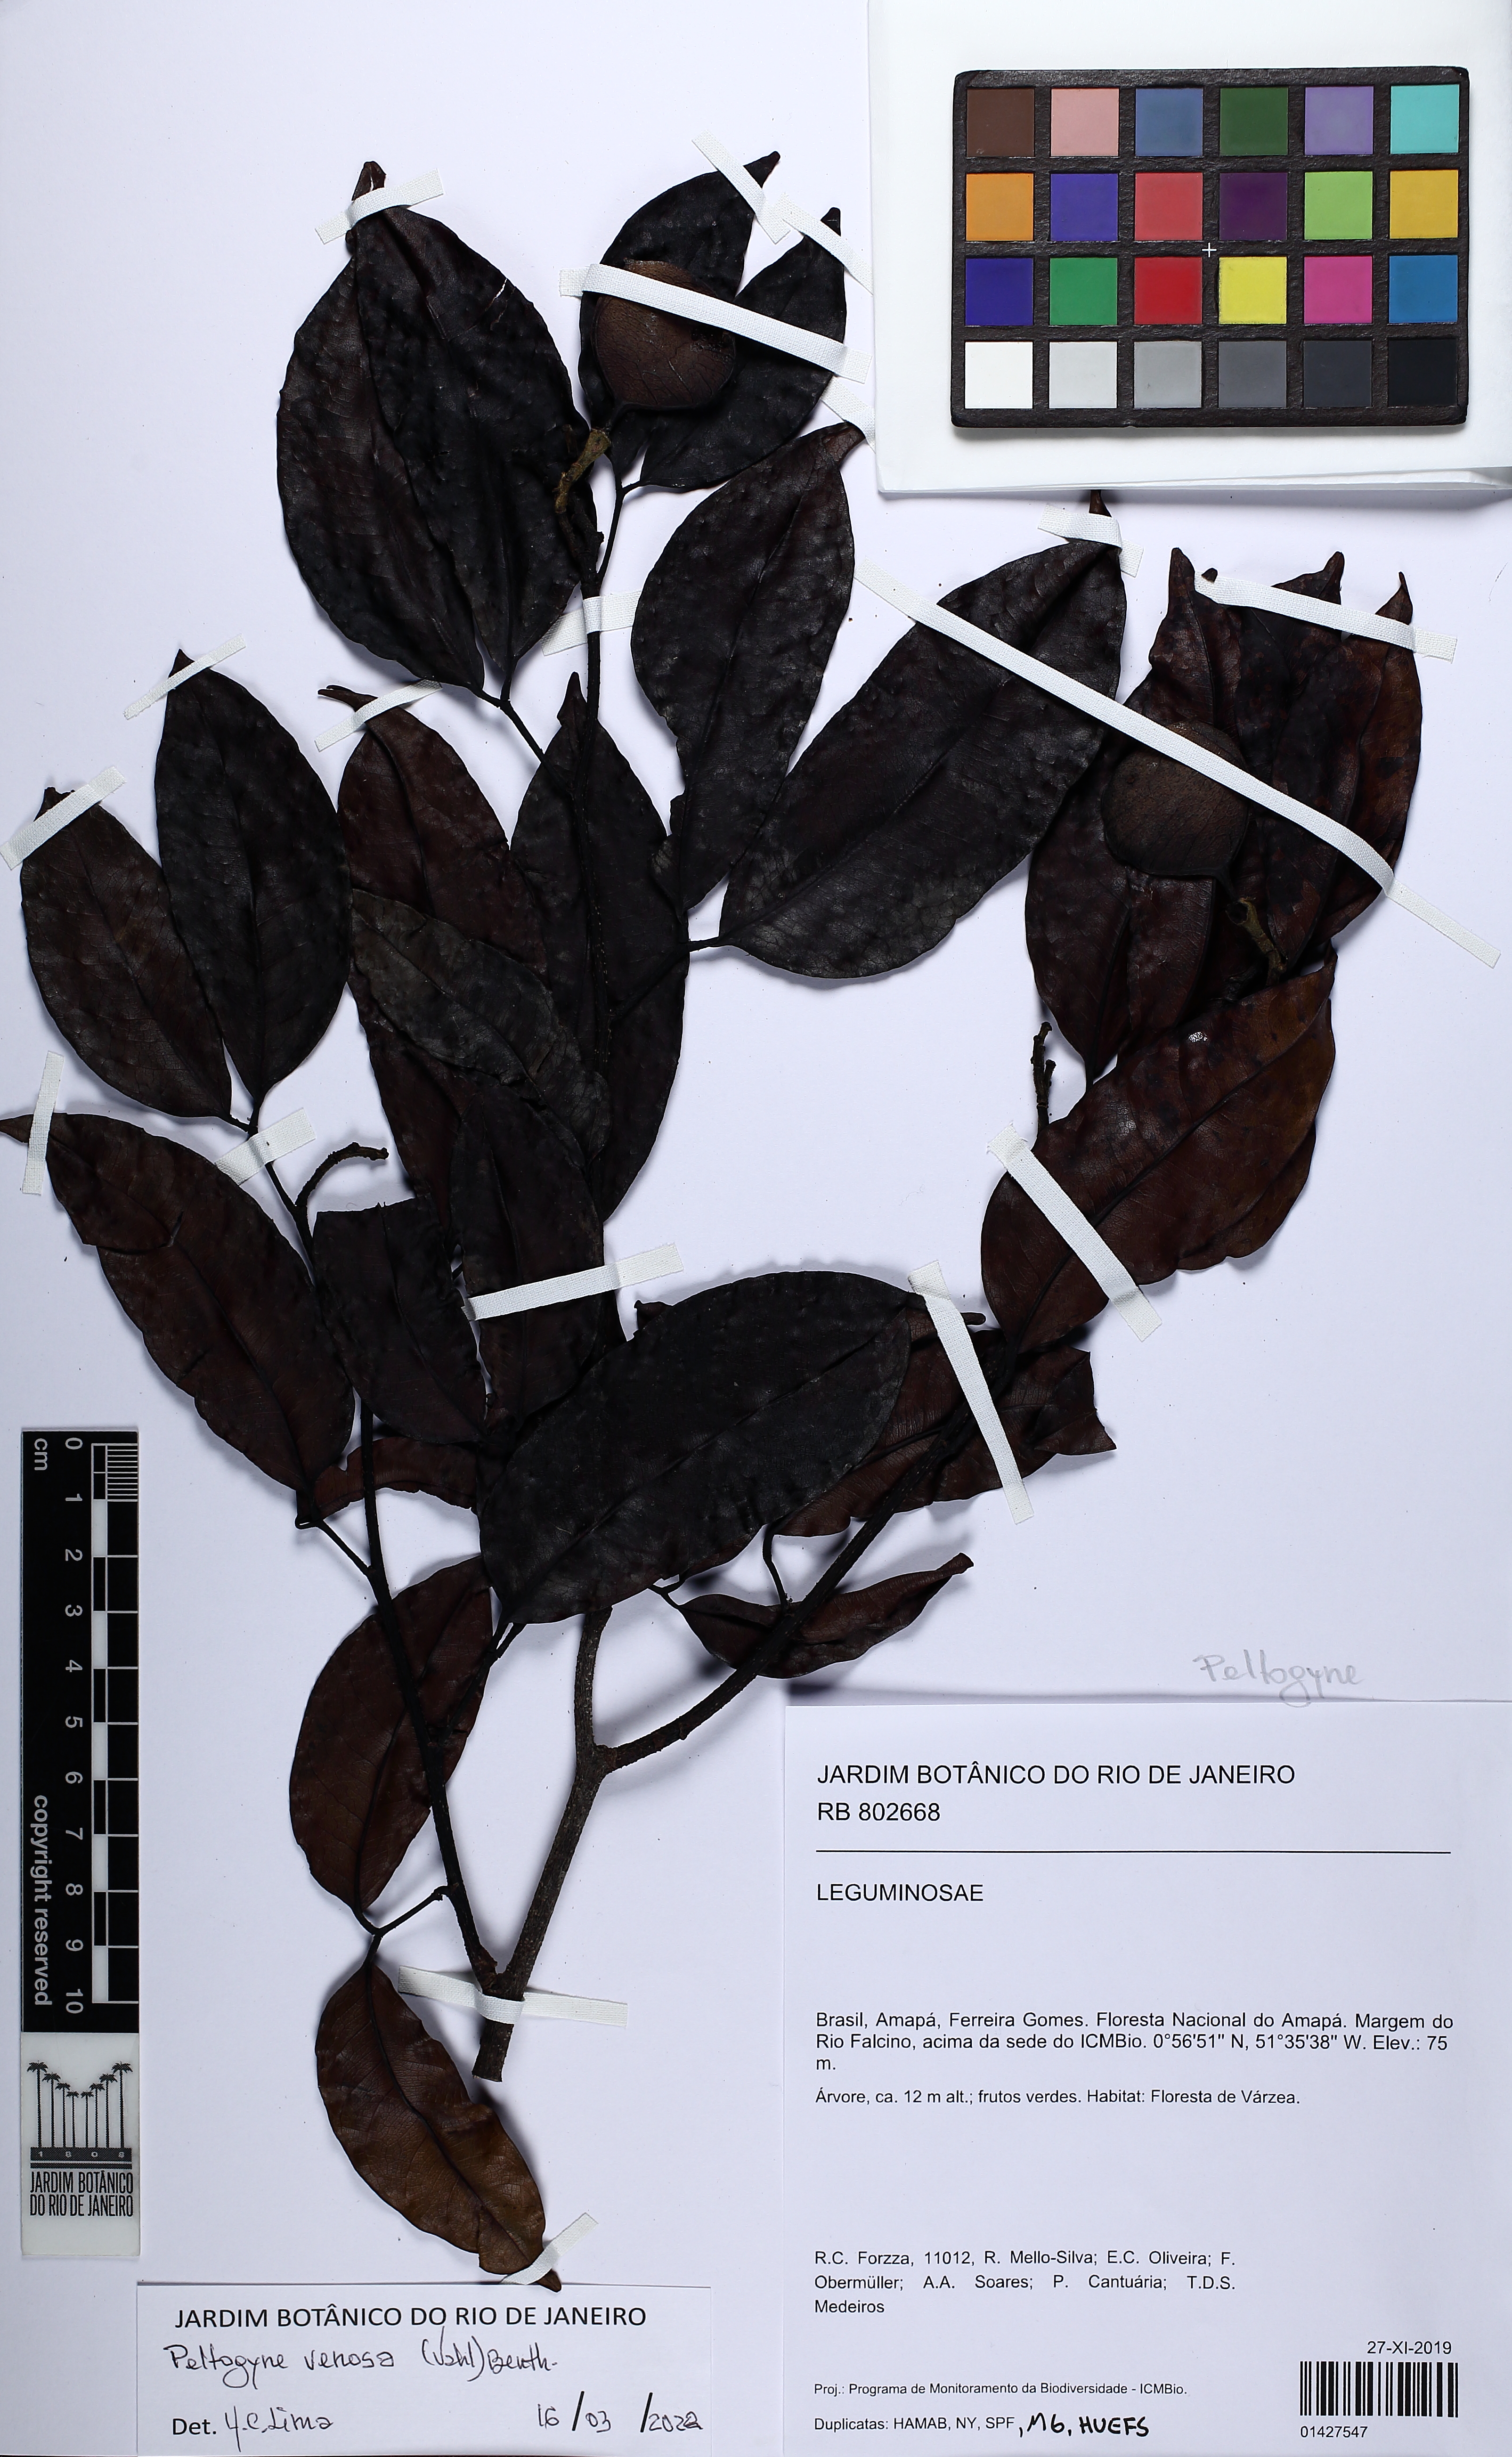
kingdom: Plantae
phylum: Tracheophyta
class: Magnoliopsida
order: Fabales
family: Fabaceae
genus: Peltogyne
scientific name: Peltogyne venosa
